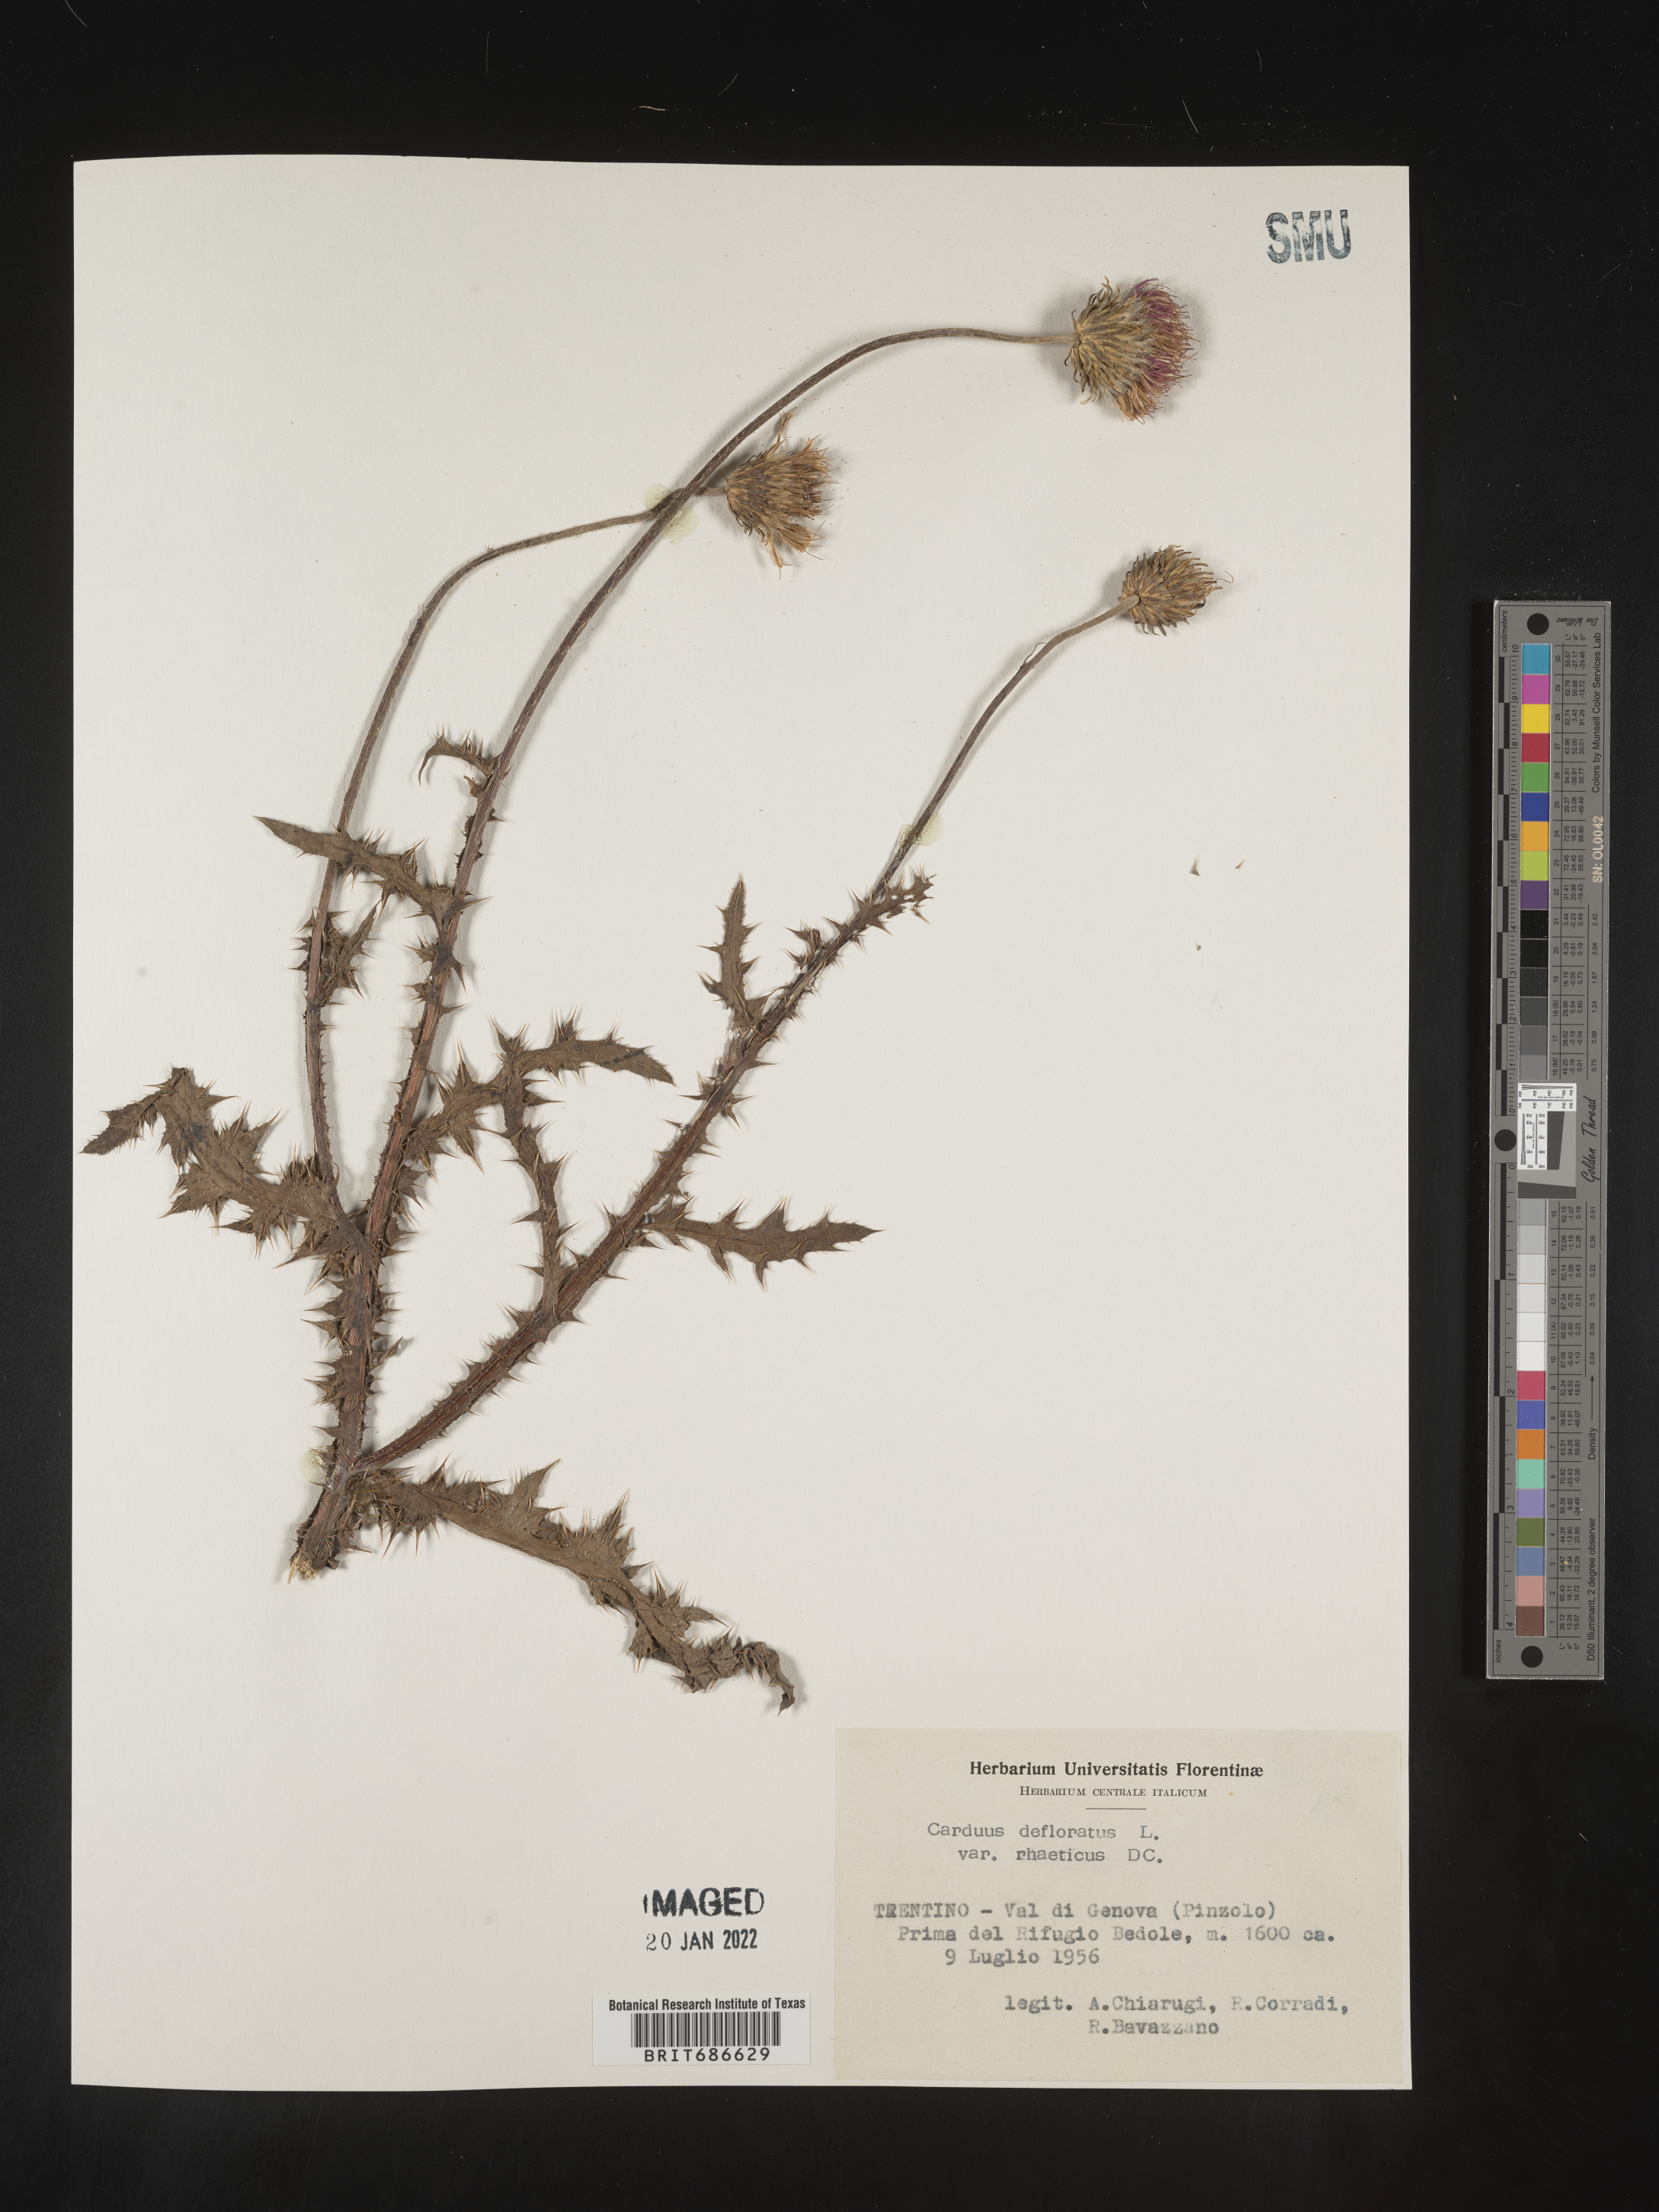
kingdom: Plantae
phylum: Tracheophyta
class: Magnoliopsida
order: Asterales
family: Asteraceae
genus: Carduus
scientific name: Carduus
